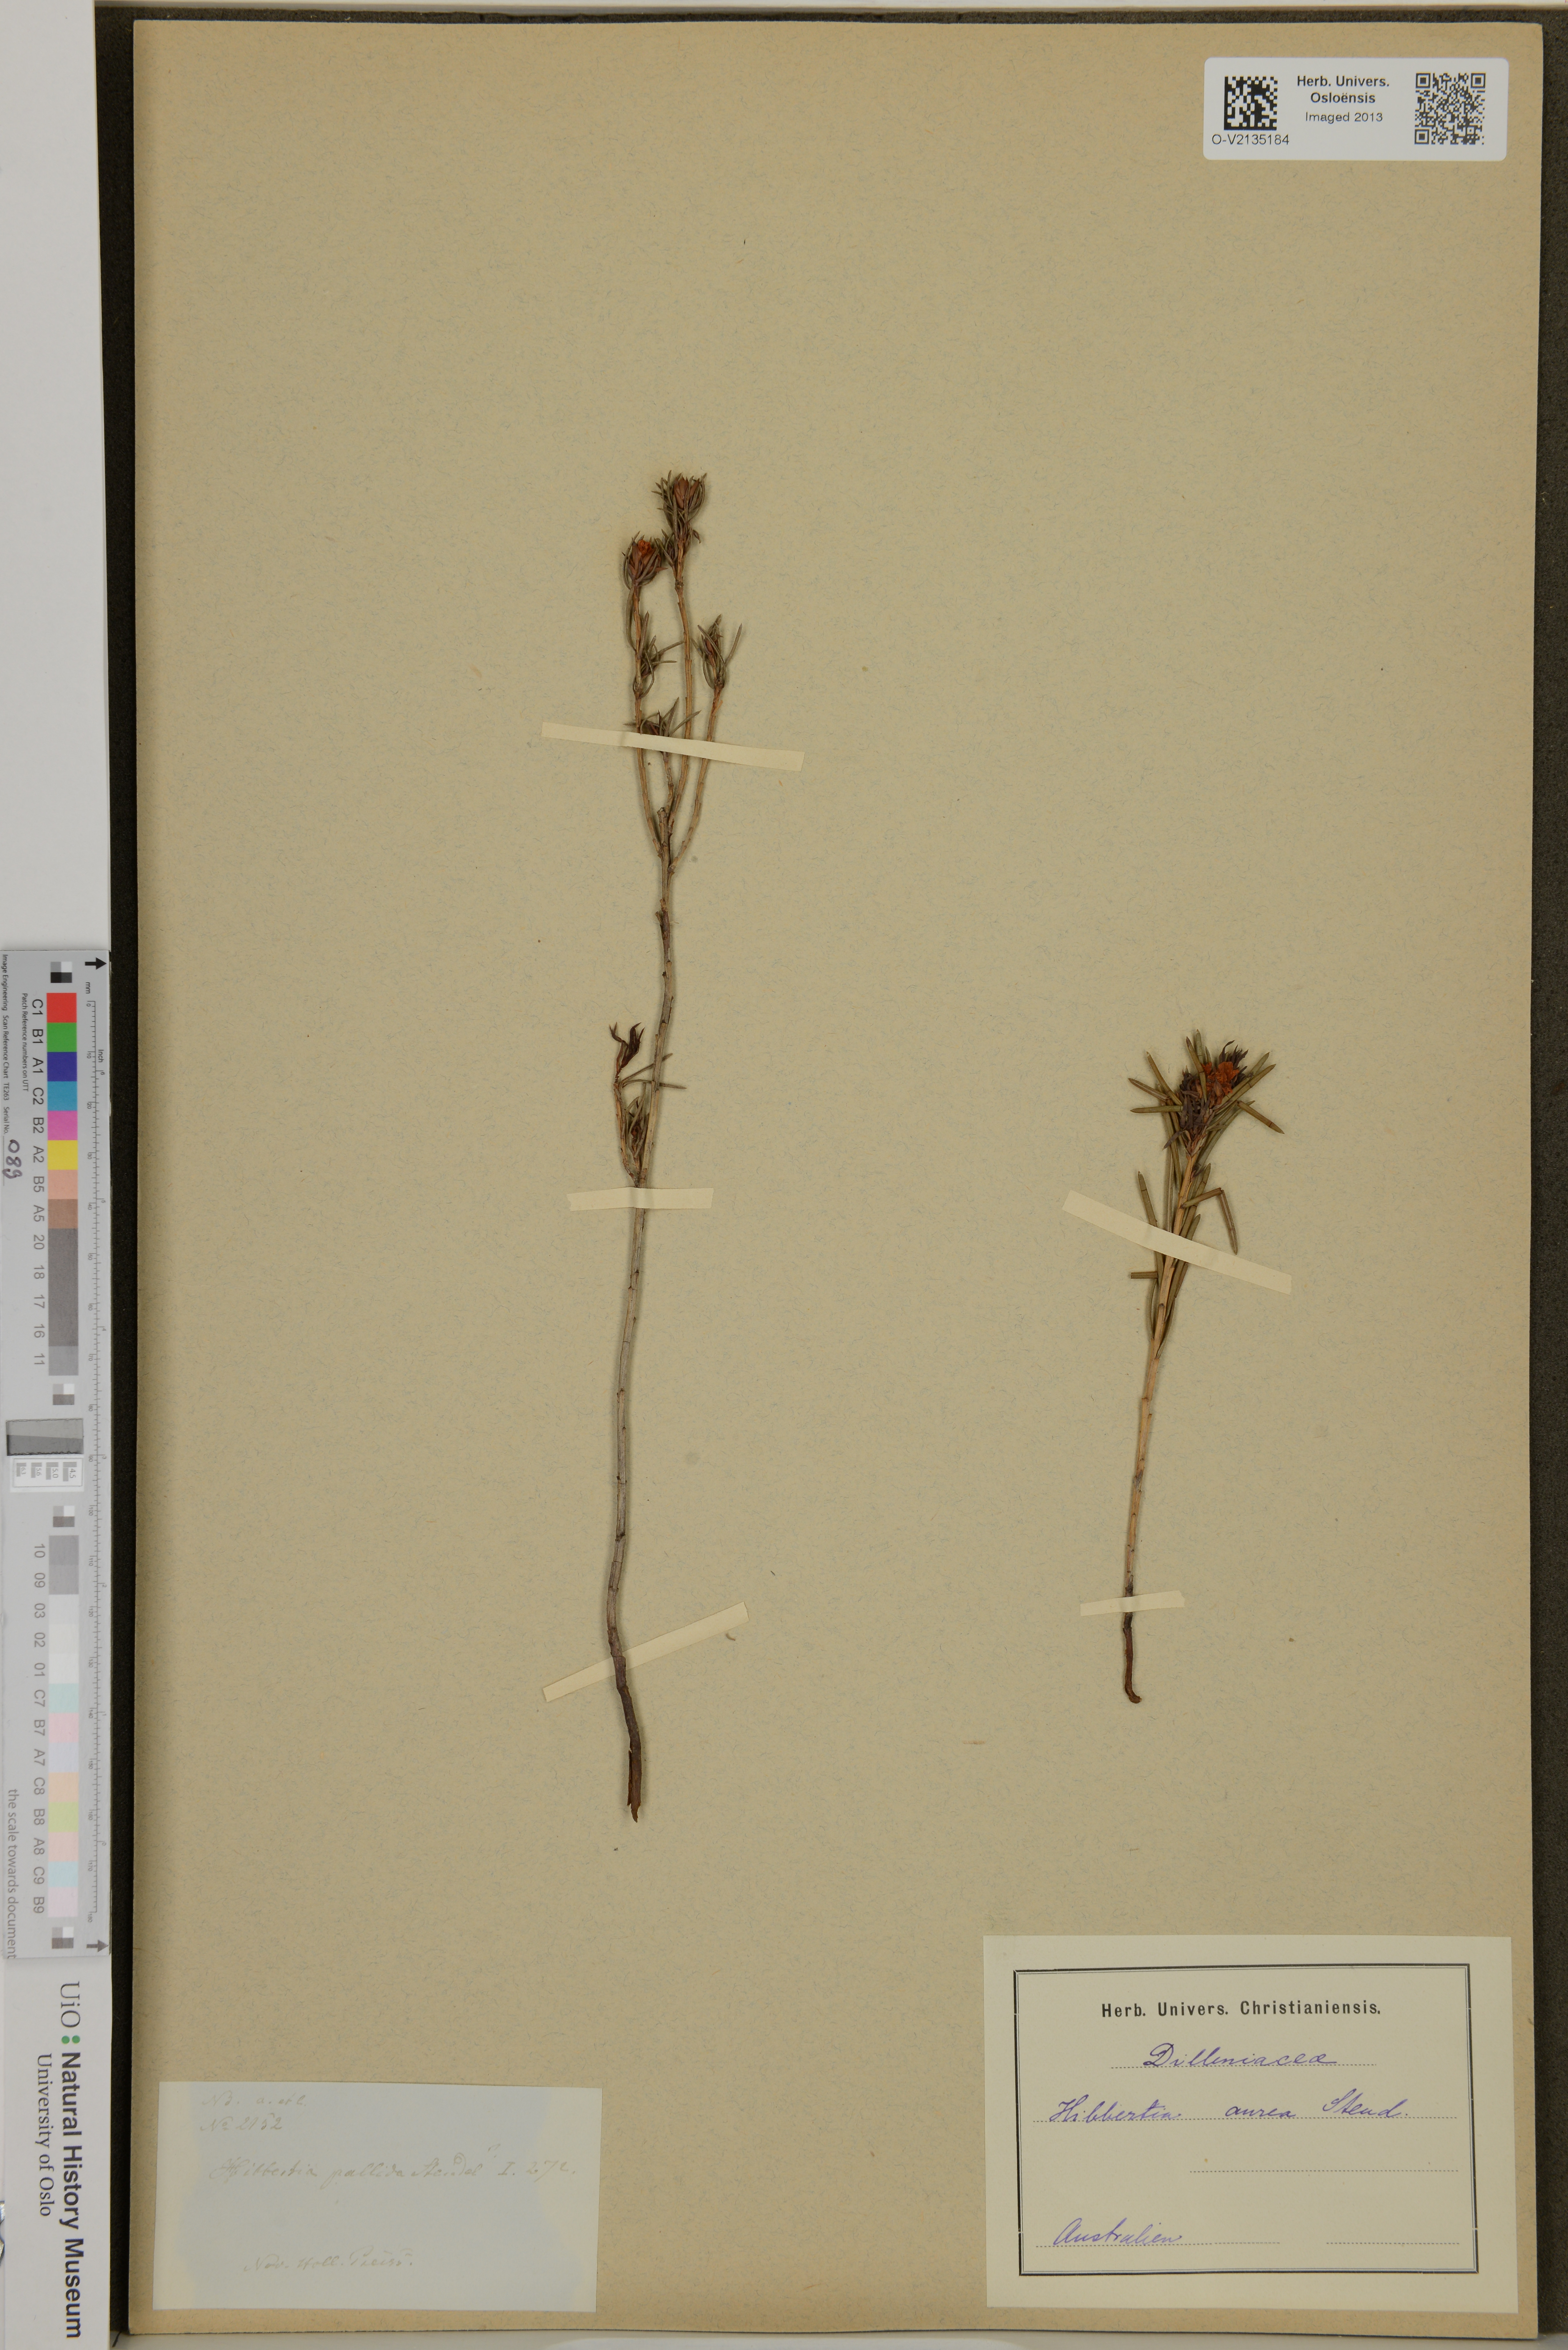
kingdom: Plantae
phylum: Tracheophyta
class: Magnoliopsida
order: Dilleniales
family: Dilleniaceae
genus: Hibbertia
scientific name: Hibbertia aurea
